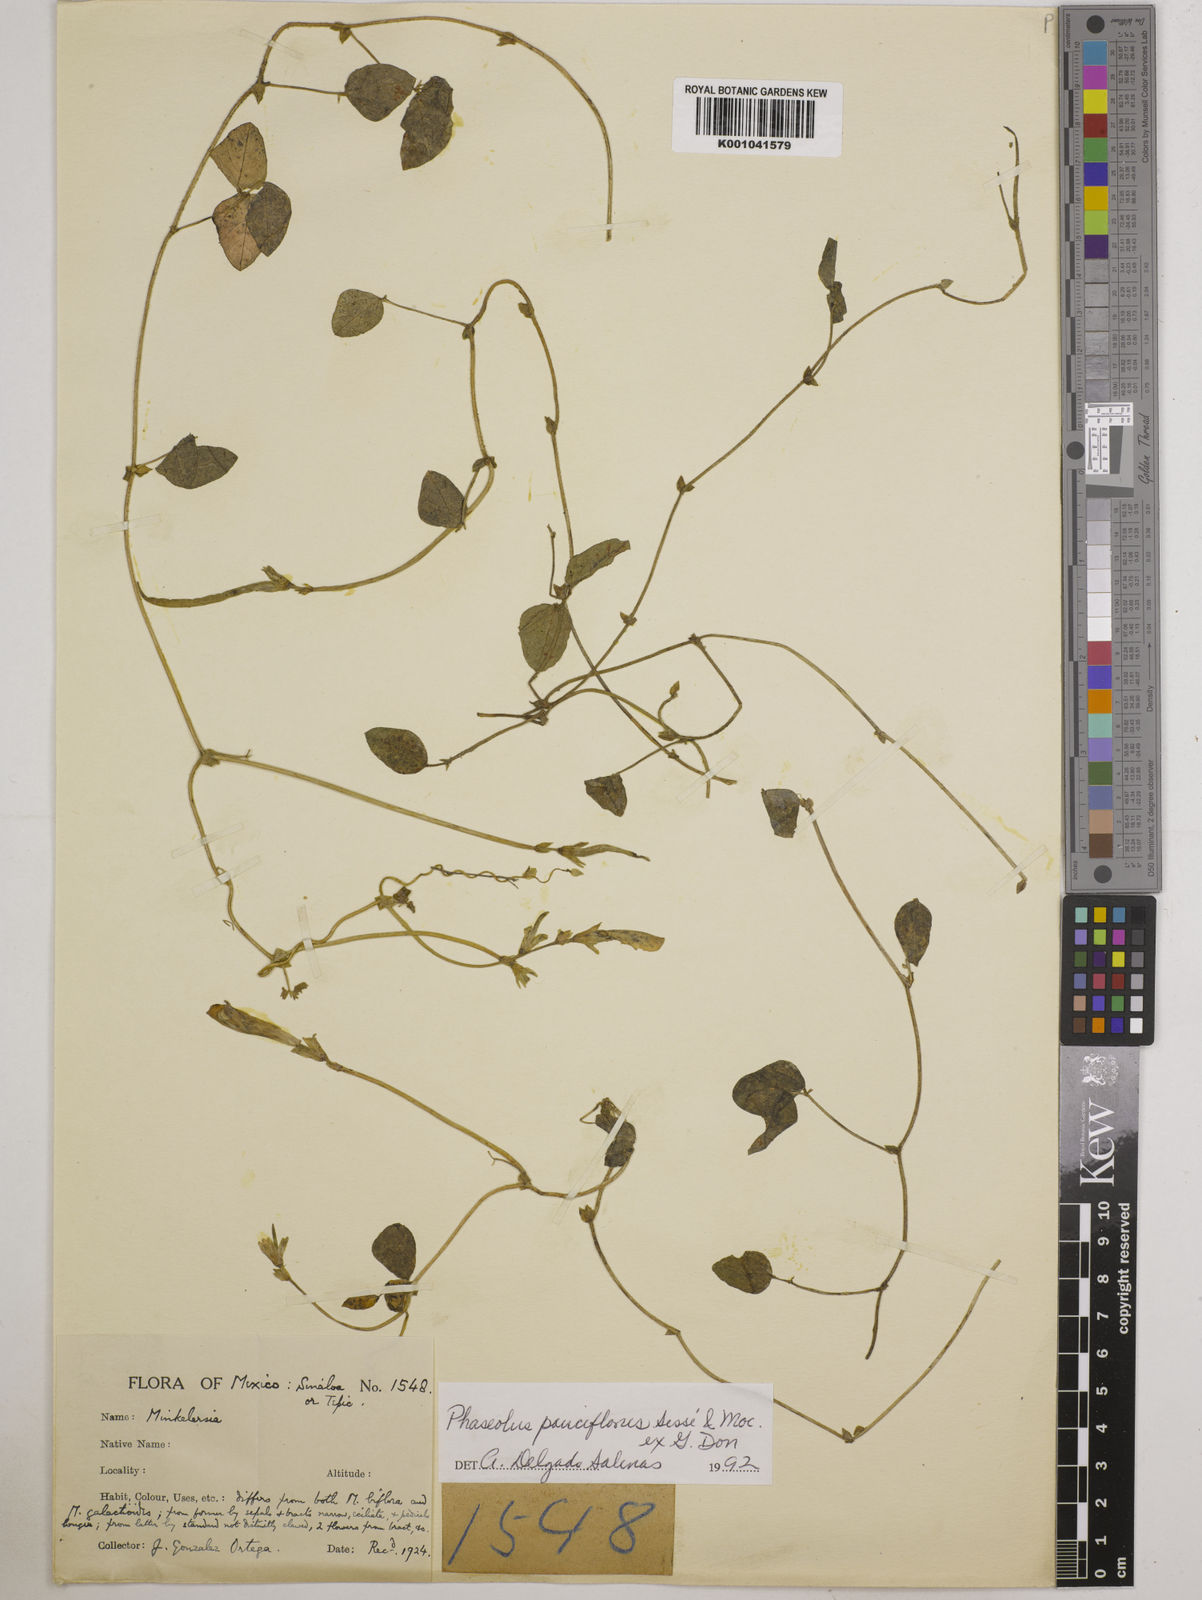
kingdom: Plantae
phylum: Tracheophyta
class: Magnoliopsida
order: Fabales
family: Fabaceae
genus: Phaseolus
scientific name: Phaseolus
